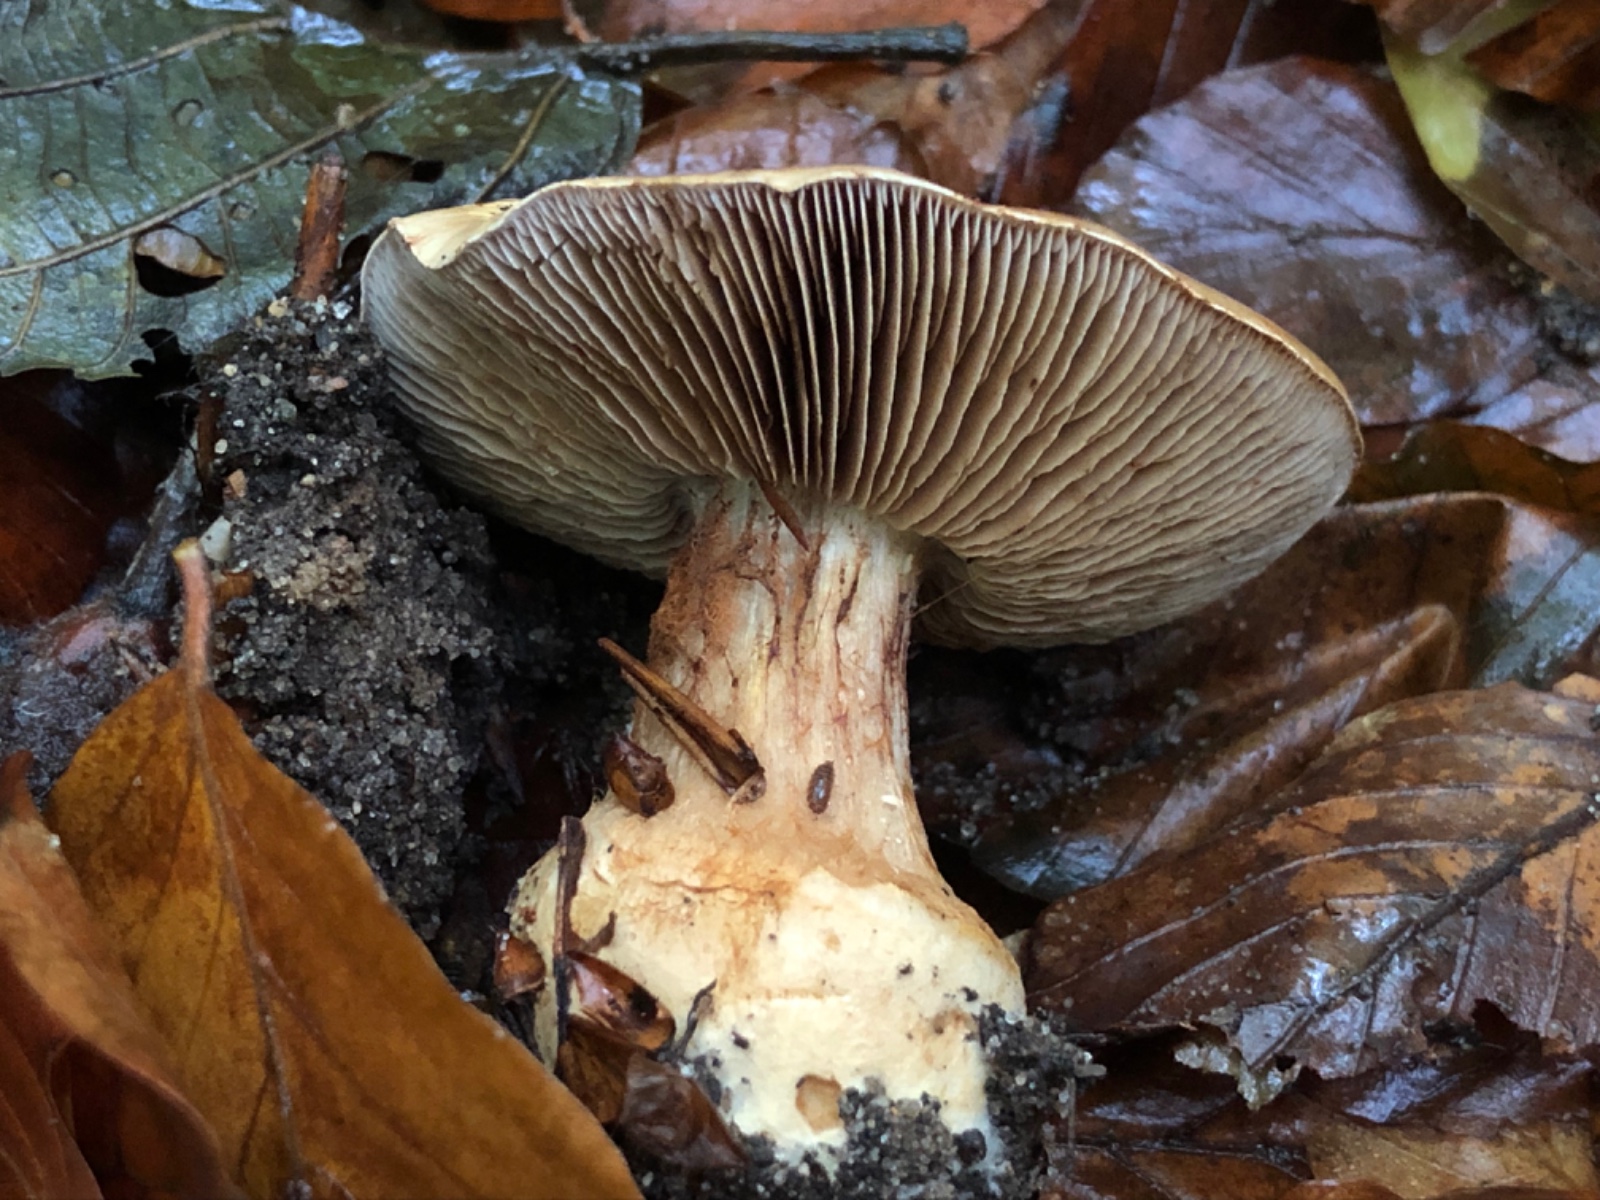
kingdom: Fungi
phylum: Basidiomycota
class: Agaricomycetes
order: Agaricales
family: Cortinariaceae
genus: Phlegmacium
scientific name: Phlegmacium luhmannii
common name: musegrå slørhat
